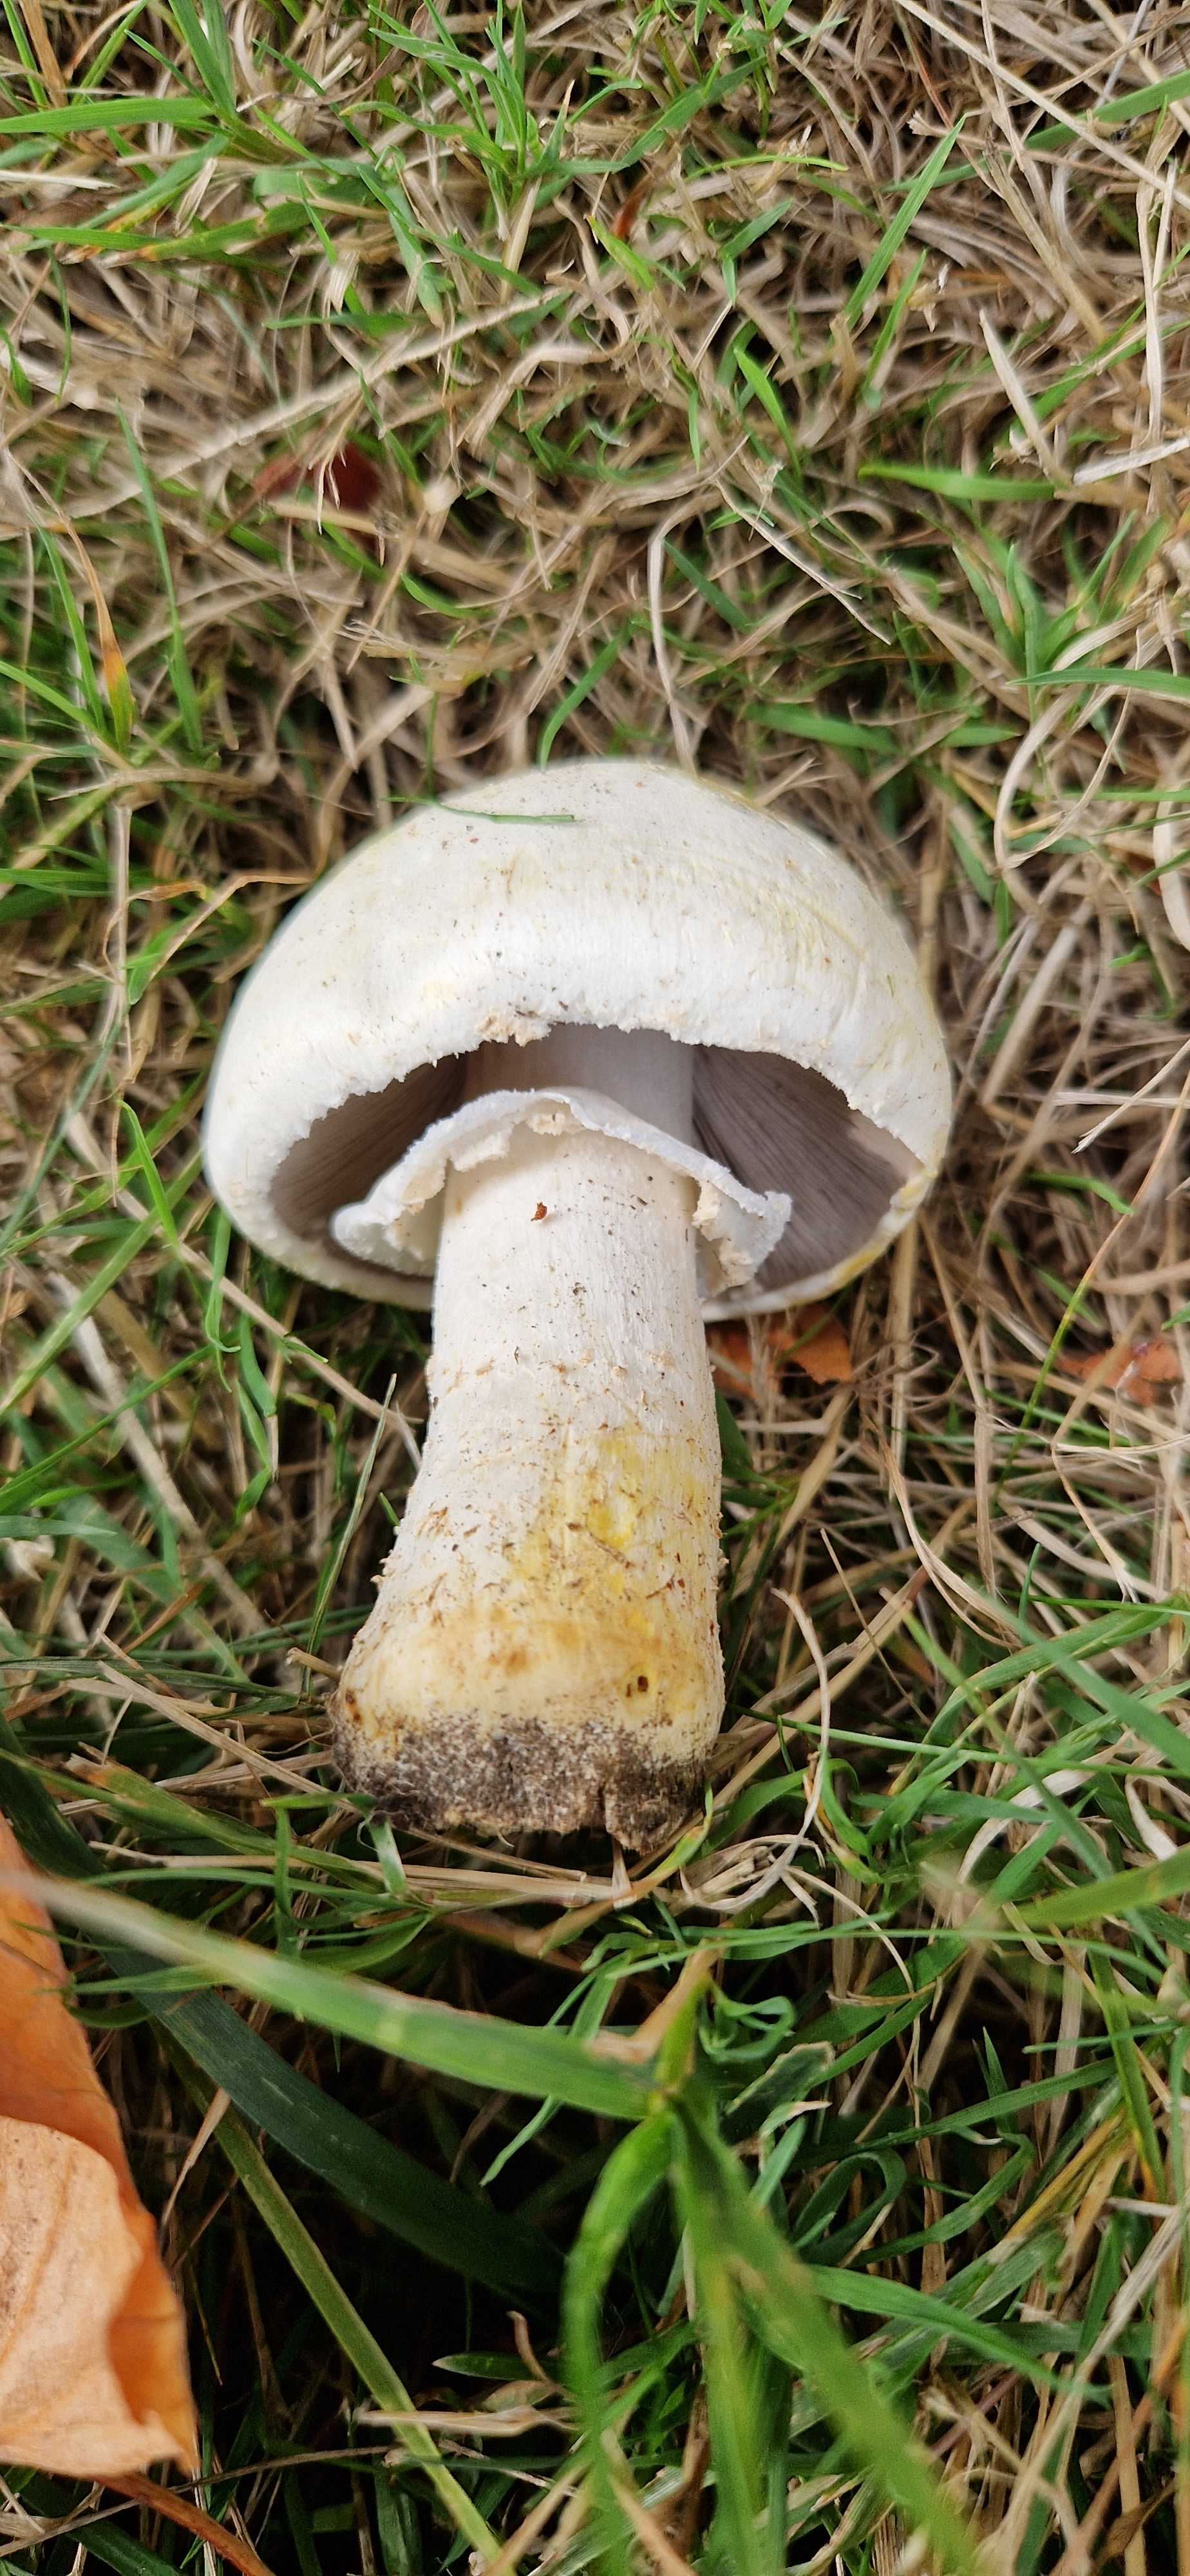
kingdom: Fungi
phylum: Basidiomycota
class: Agaricomycetes
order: Agaricales
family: Agaricaceae
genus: Agaricus
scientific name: Agaricus xanthodermus
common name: karbol-champignon
